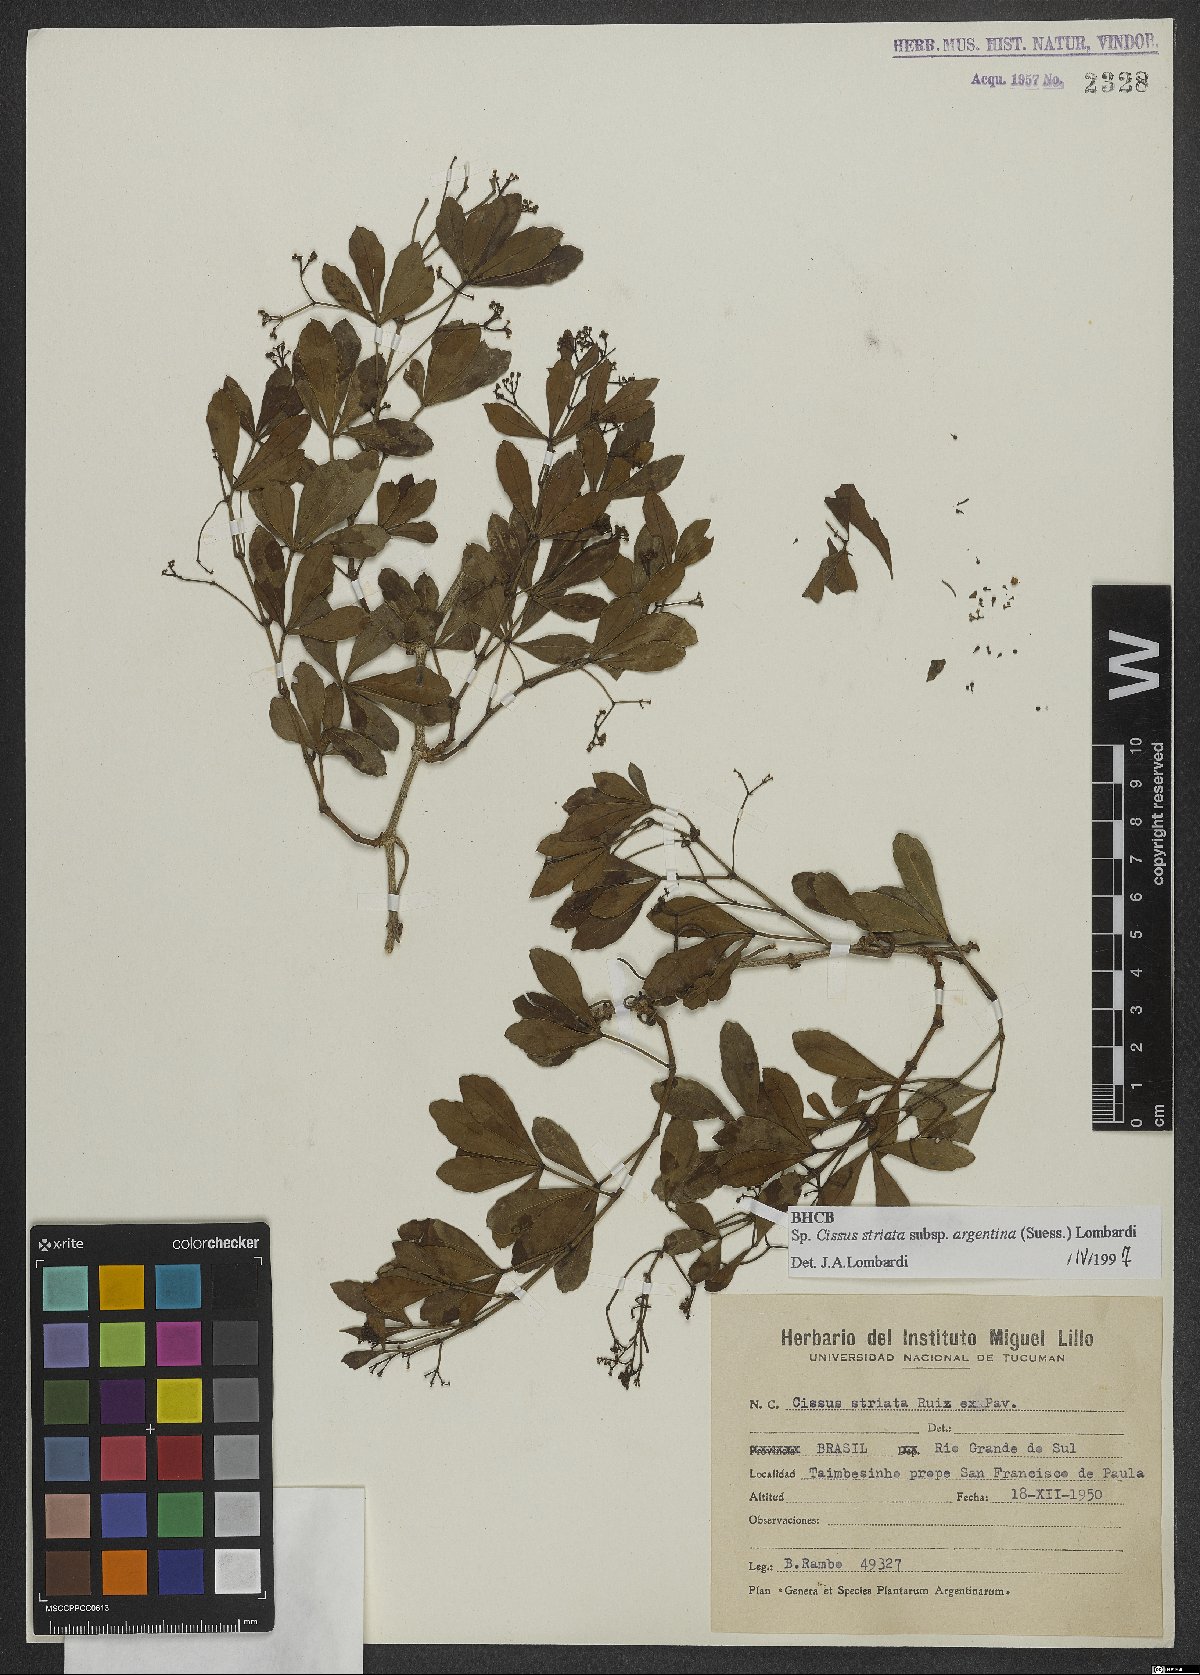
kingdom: Plantae
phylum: Tracheophyta
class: Magnoliopsida
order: Vitales
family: Vitaceae
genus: Clematicissus
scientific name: Clematicissus striata
